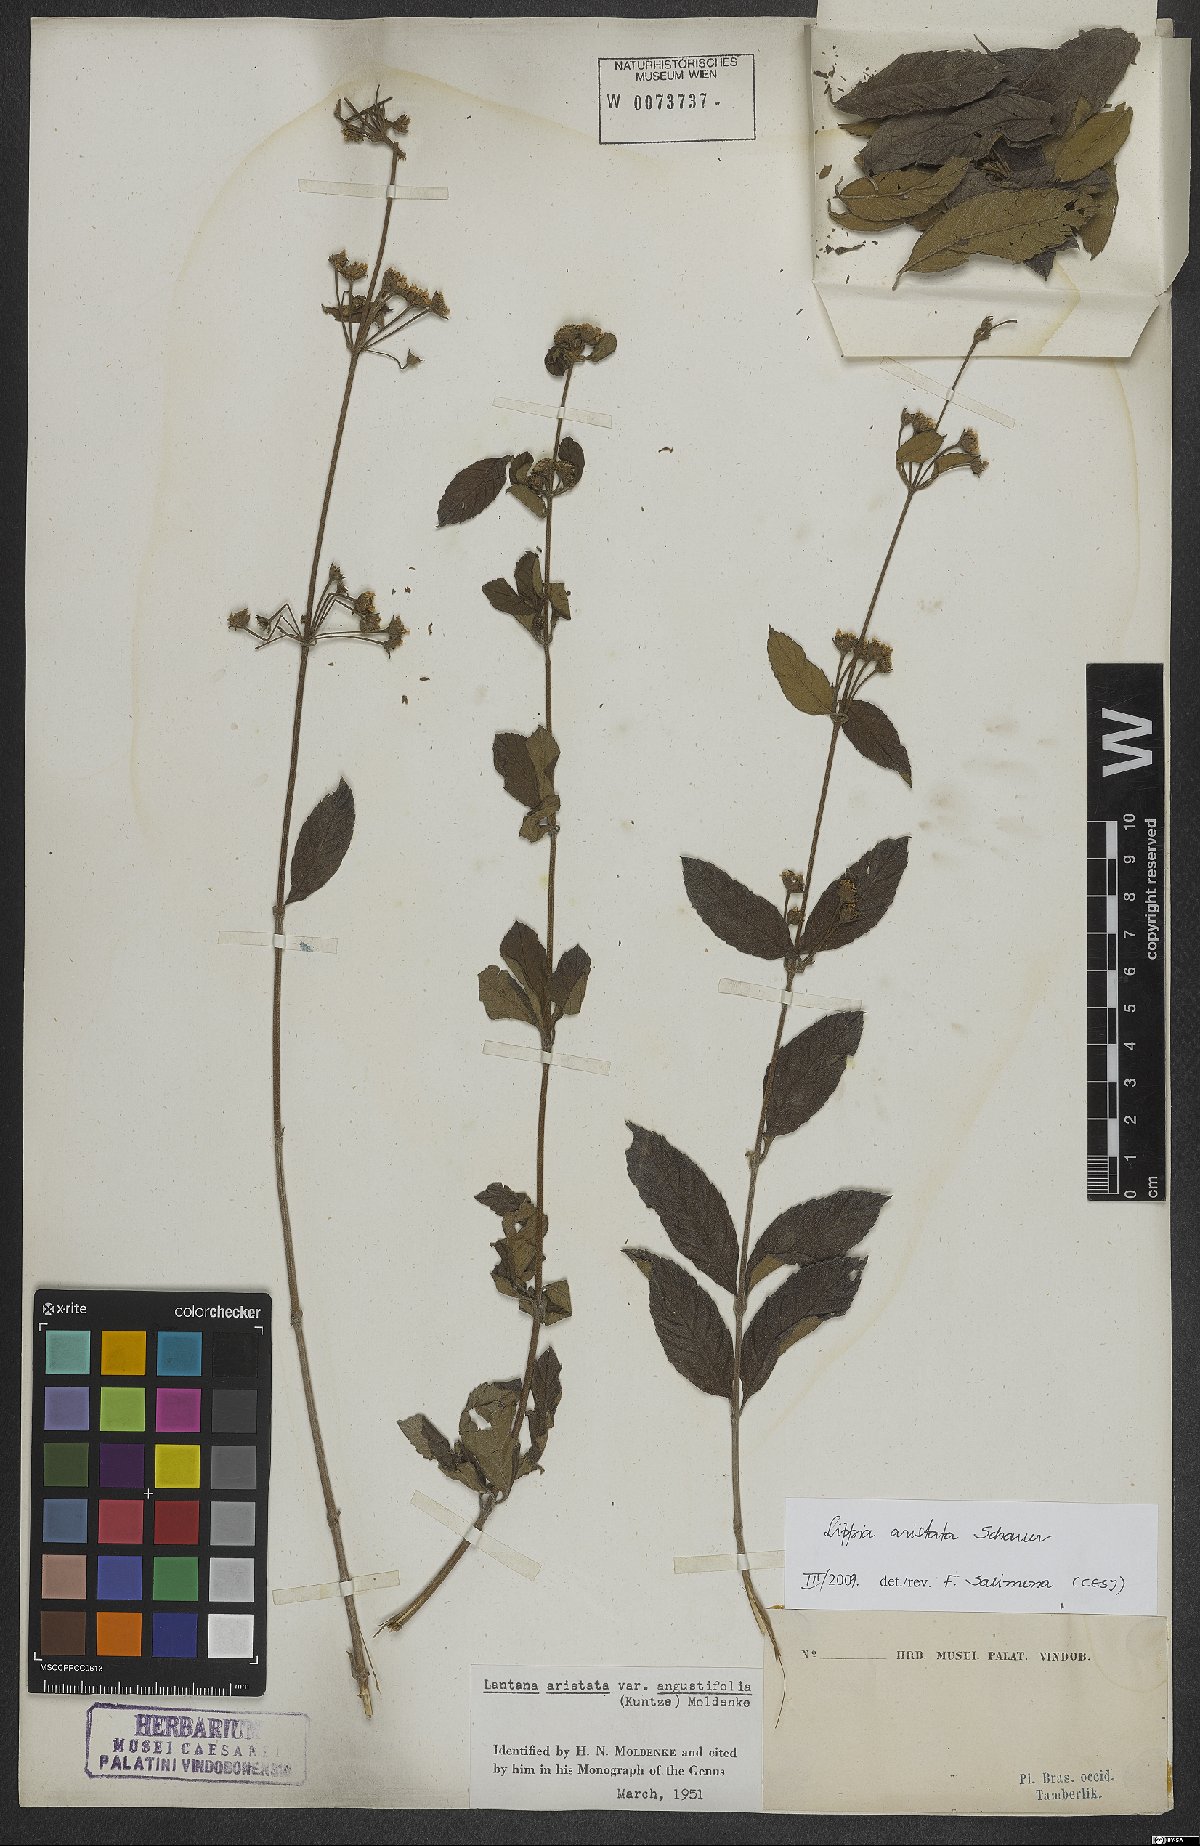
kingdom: Plantae
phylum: Tracheophyta
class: Magnoliopsida
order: Lamiales
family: Verbenaceae
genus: Lippia
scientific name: Lippia aristata
